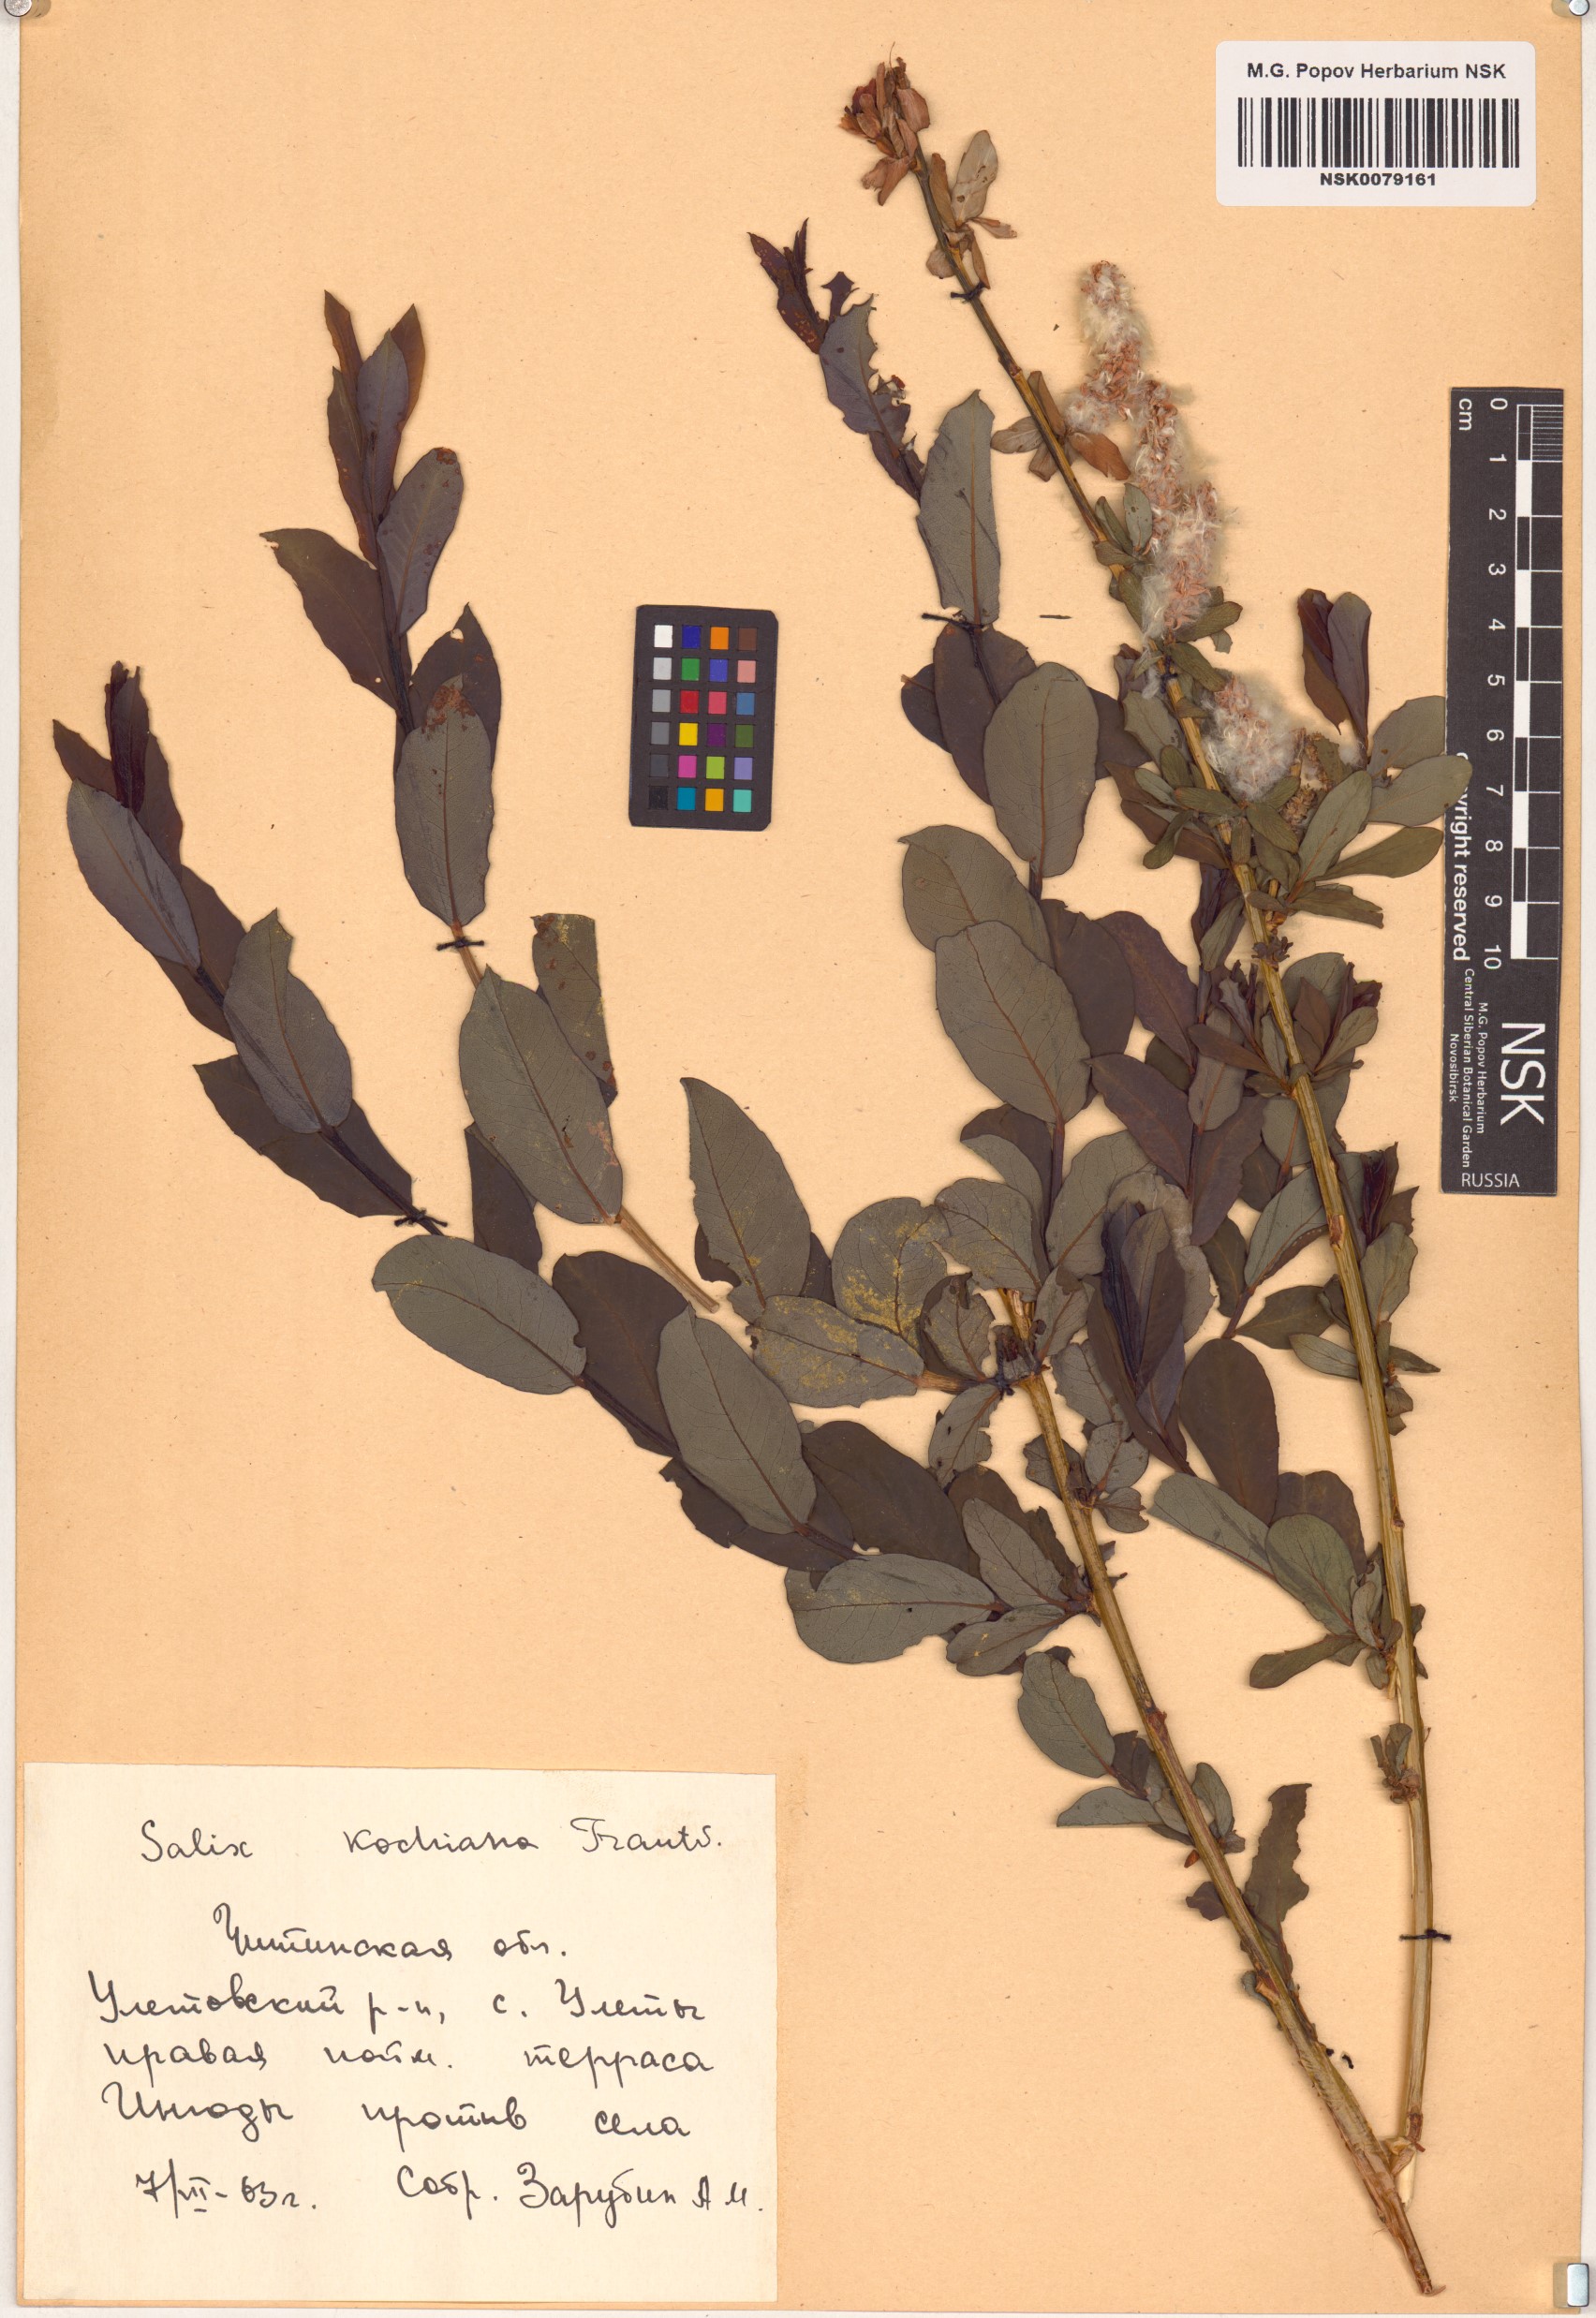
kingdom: Plantae
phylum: Tracheophyta
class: Magnoliopsida
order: Malpighiales
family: Salicaceae
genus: Salix
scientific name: Salix kochiana
